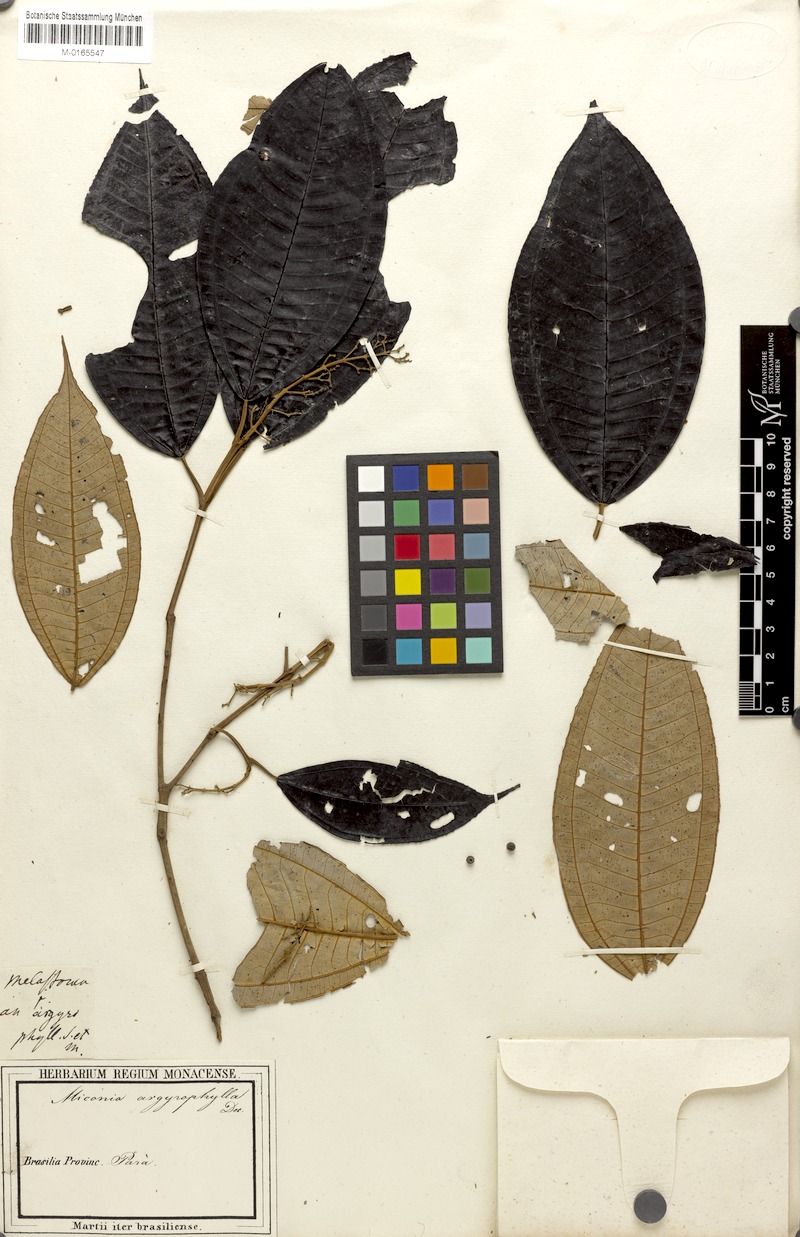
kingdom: Plantae
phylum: Tracheophyta
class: Magnoliopsida
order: Myrtales
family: Melastomataceae
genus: Miconia
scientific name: Miconia argyrophylla
